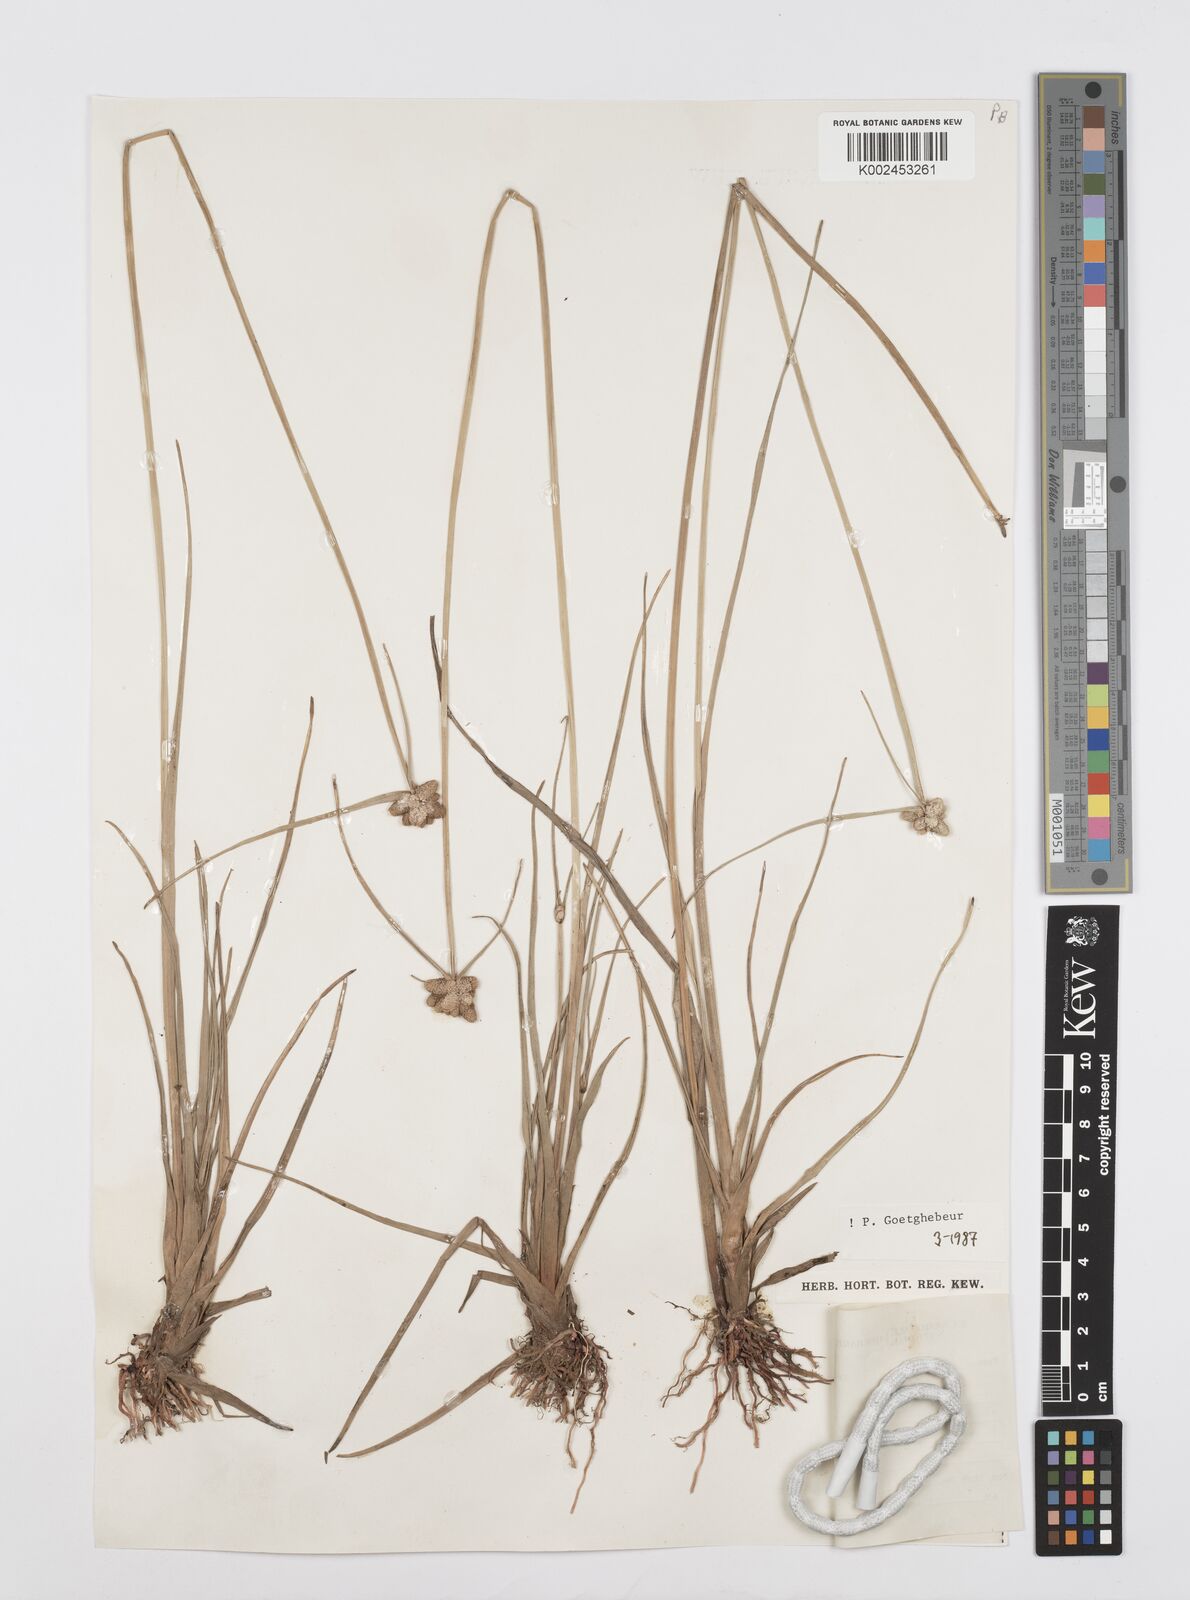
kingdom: Plantae
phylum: Tracheophyta
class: Liliopsida
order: Poales
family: Cyperaceae
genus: Cyperus
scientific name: Cyperus albescens
